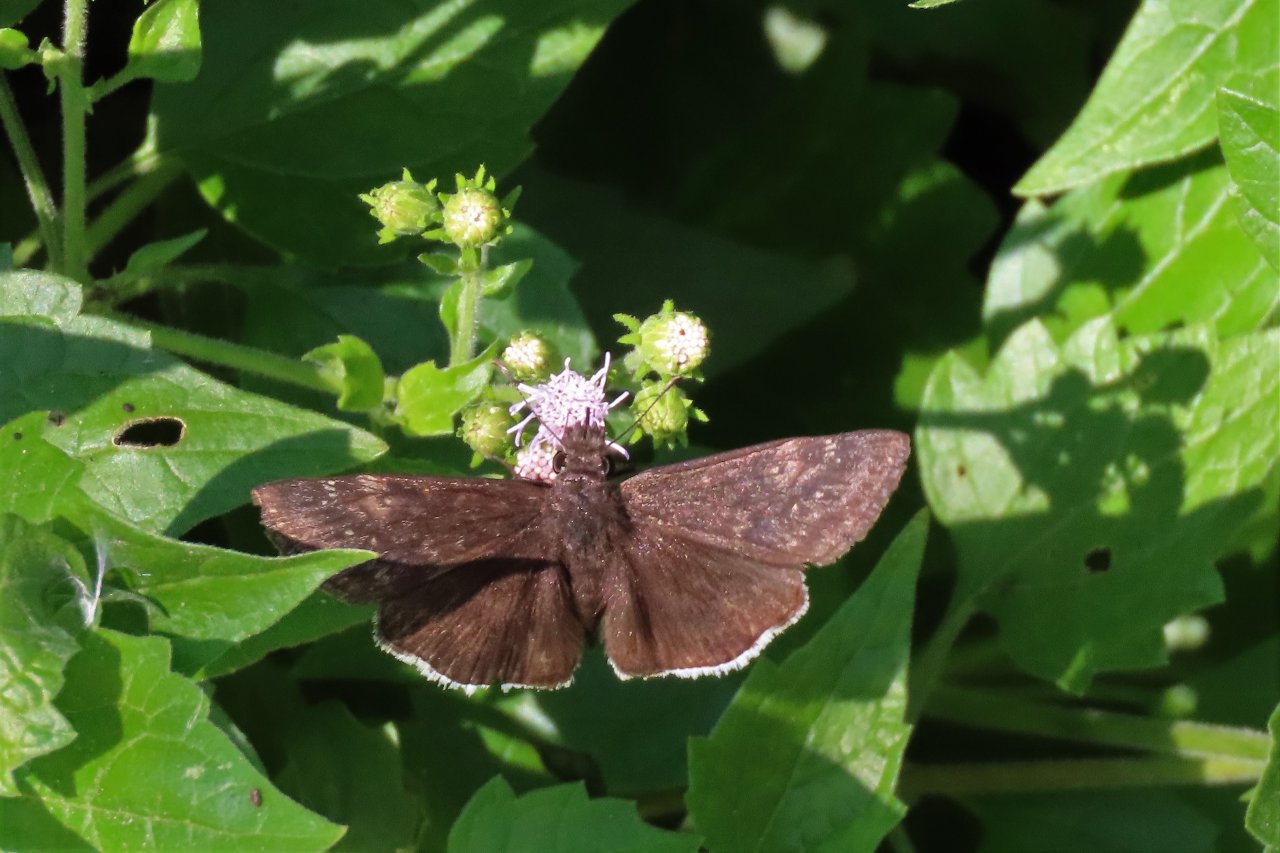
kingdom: Animalia
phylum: Arthropoda
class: Insecta
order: Lepidoptera
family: Hesperiidae
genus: Erynnis
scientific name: Erynnis funeralis
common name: Funereal Duskywing
